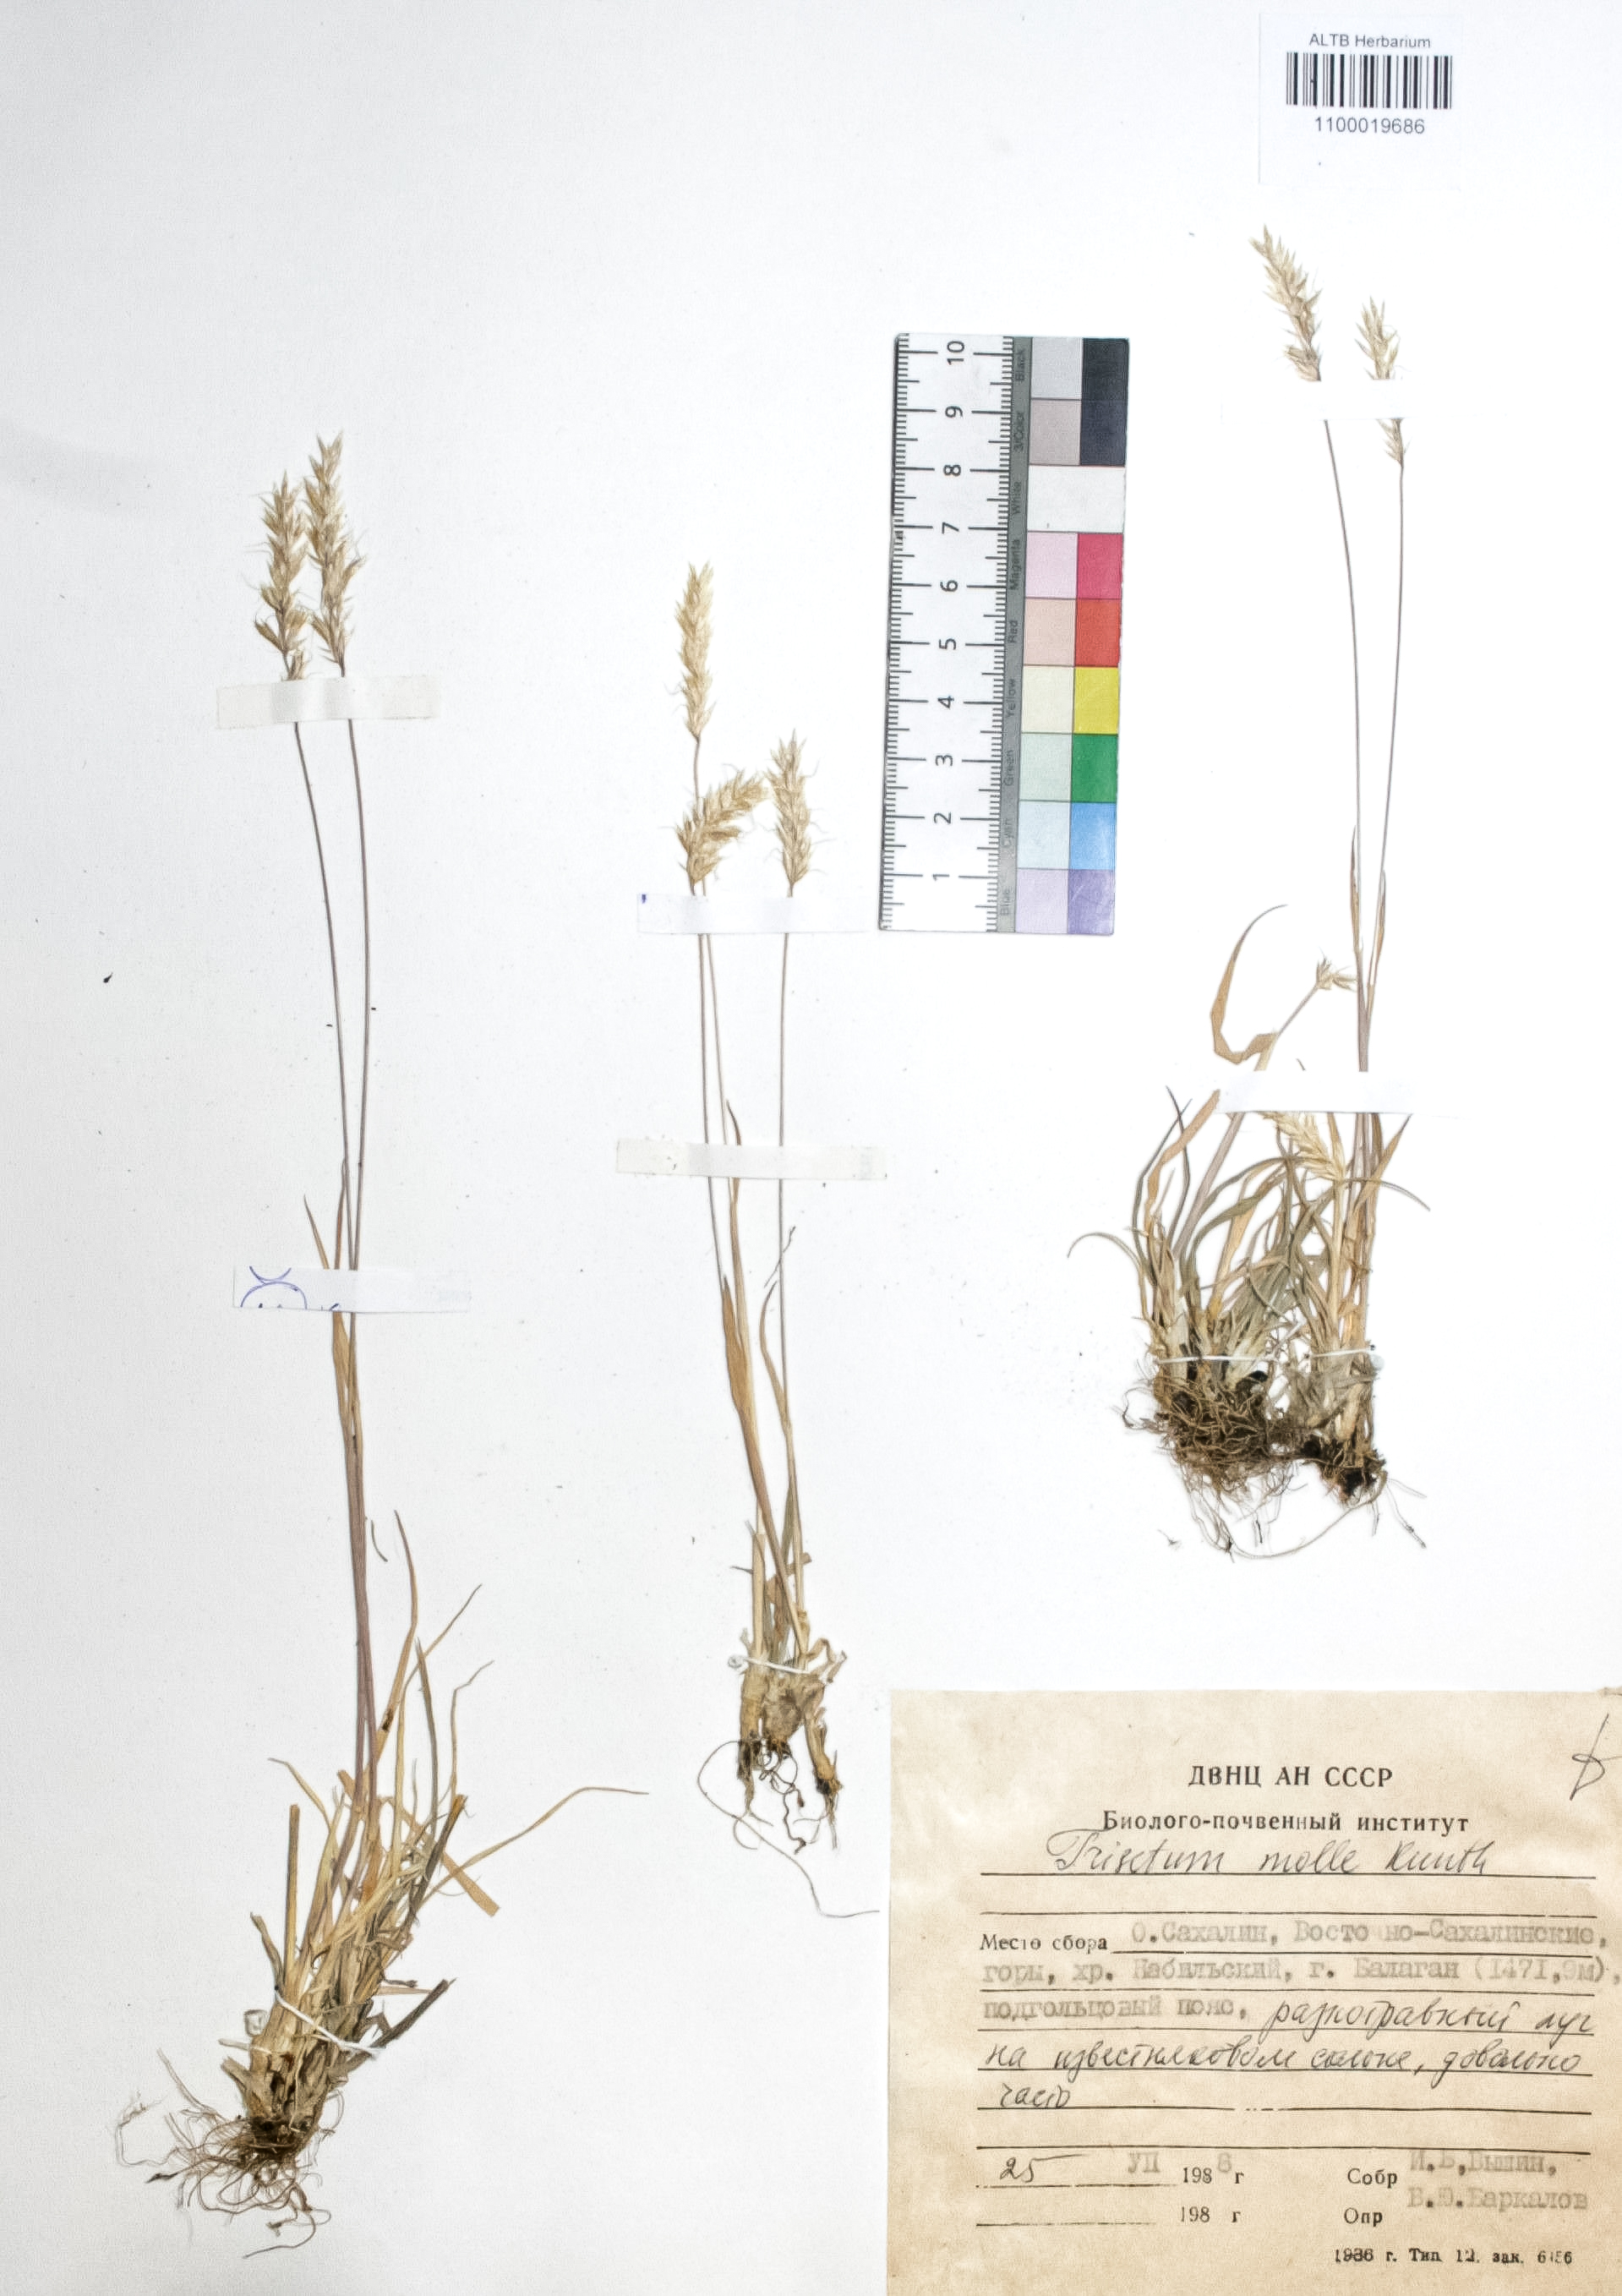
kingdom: Plantae
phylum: Tracheophyta
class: Liliopsida
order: Poales
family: Poaceae
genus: Koeleria
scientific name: Koeleria spicata
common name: Mountain trisetum
